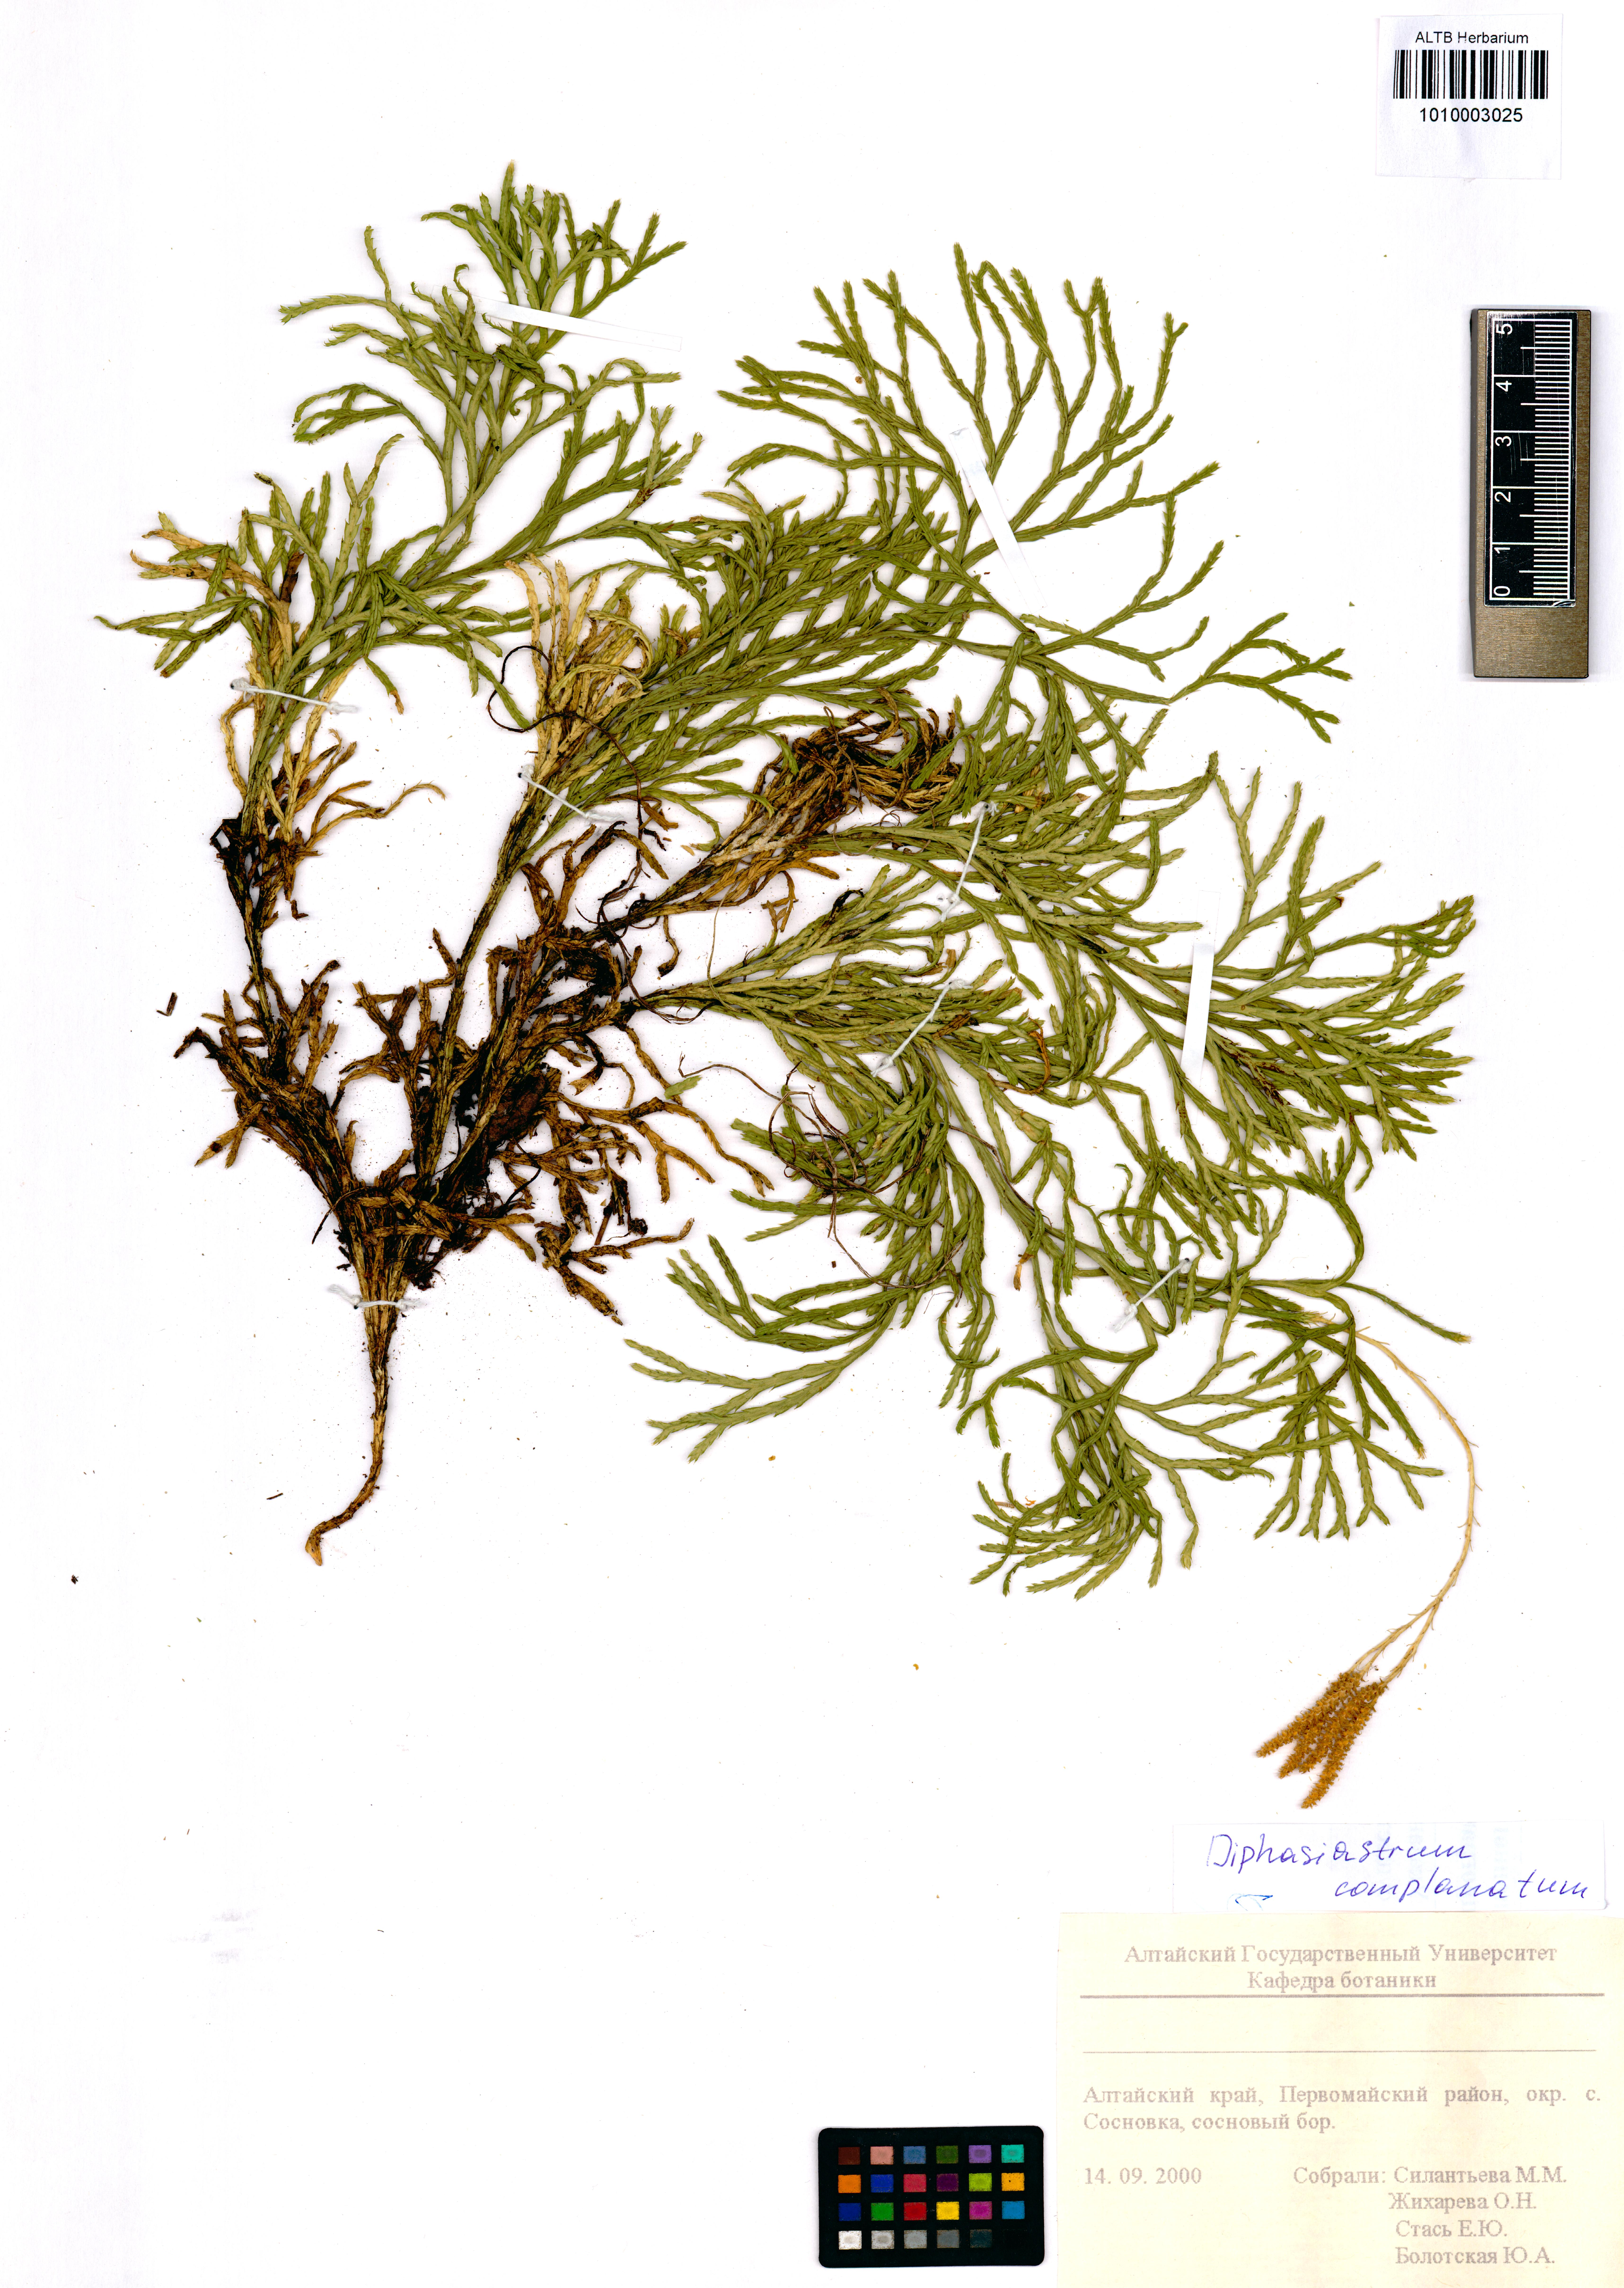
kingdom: Plantae
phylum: Tracheophyta
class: Lycopodiopsida
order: Lycopodiales
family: Lycopodiaceae
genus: Diphasiastrum
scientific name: Diphasiastrum complanatum
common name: Northern running-pine
